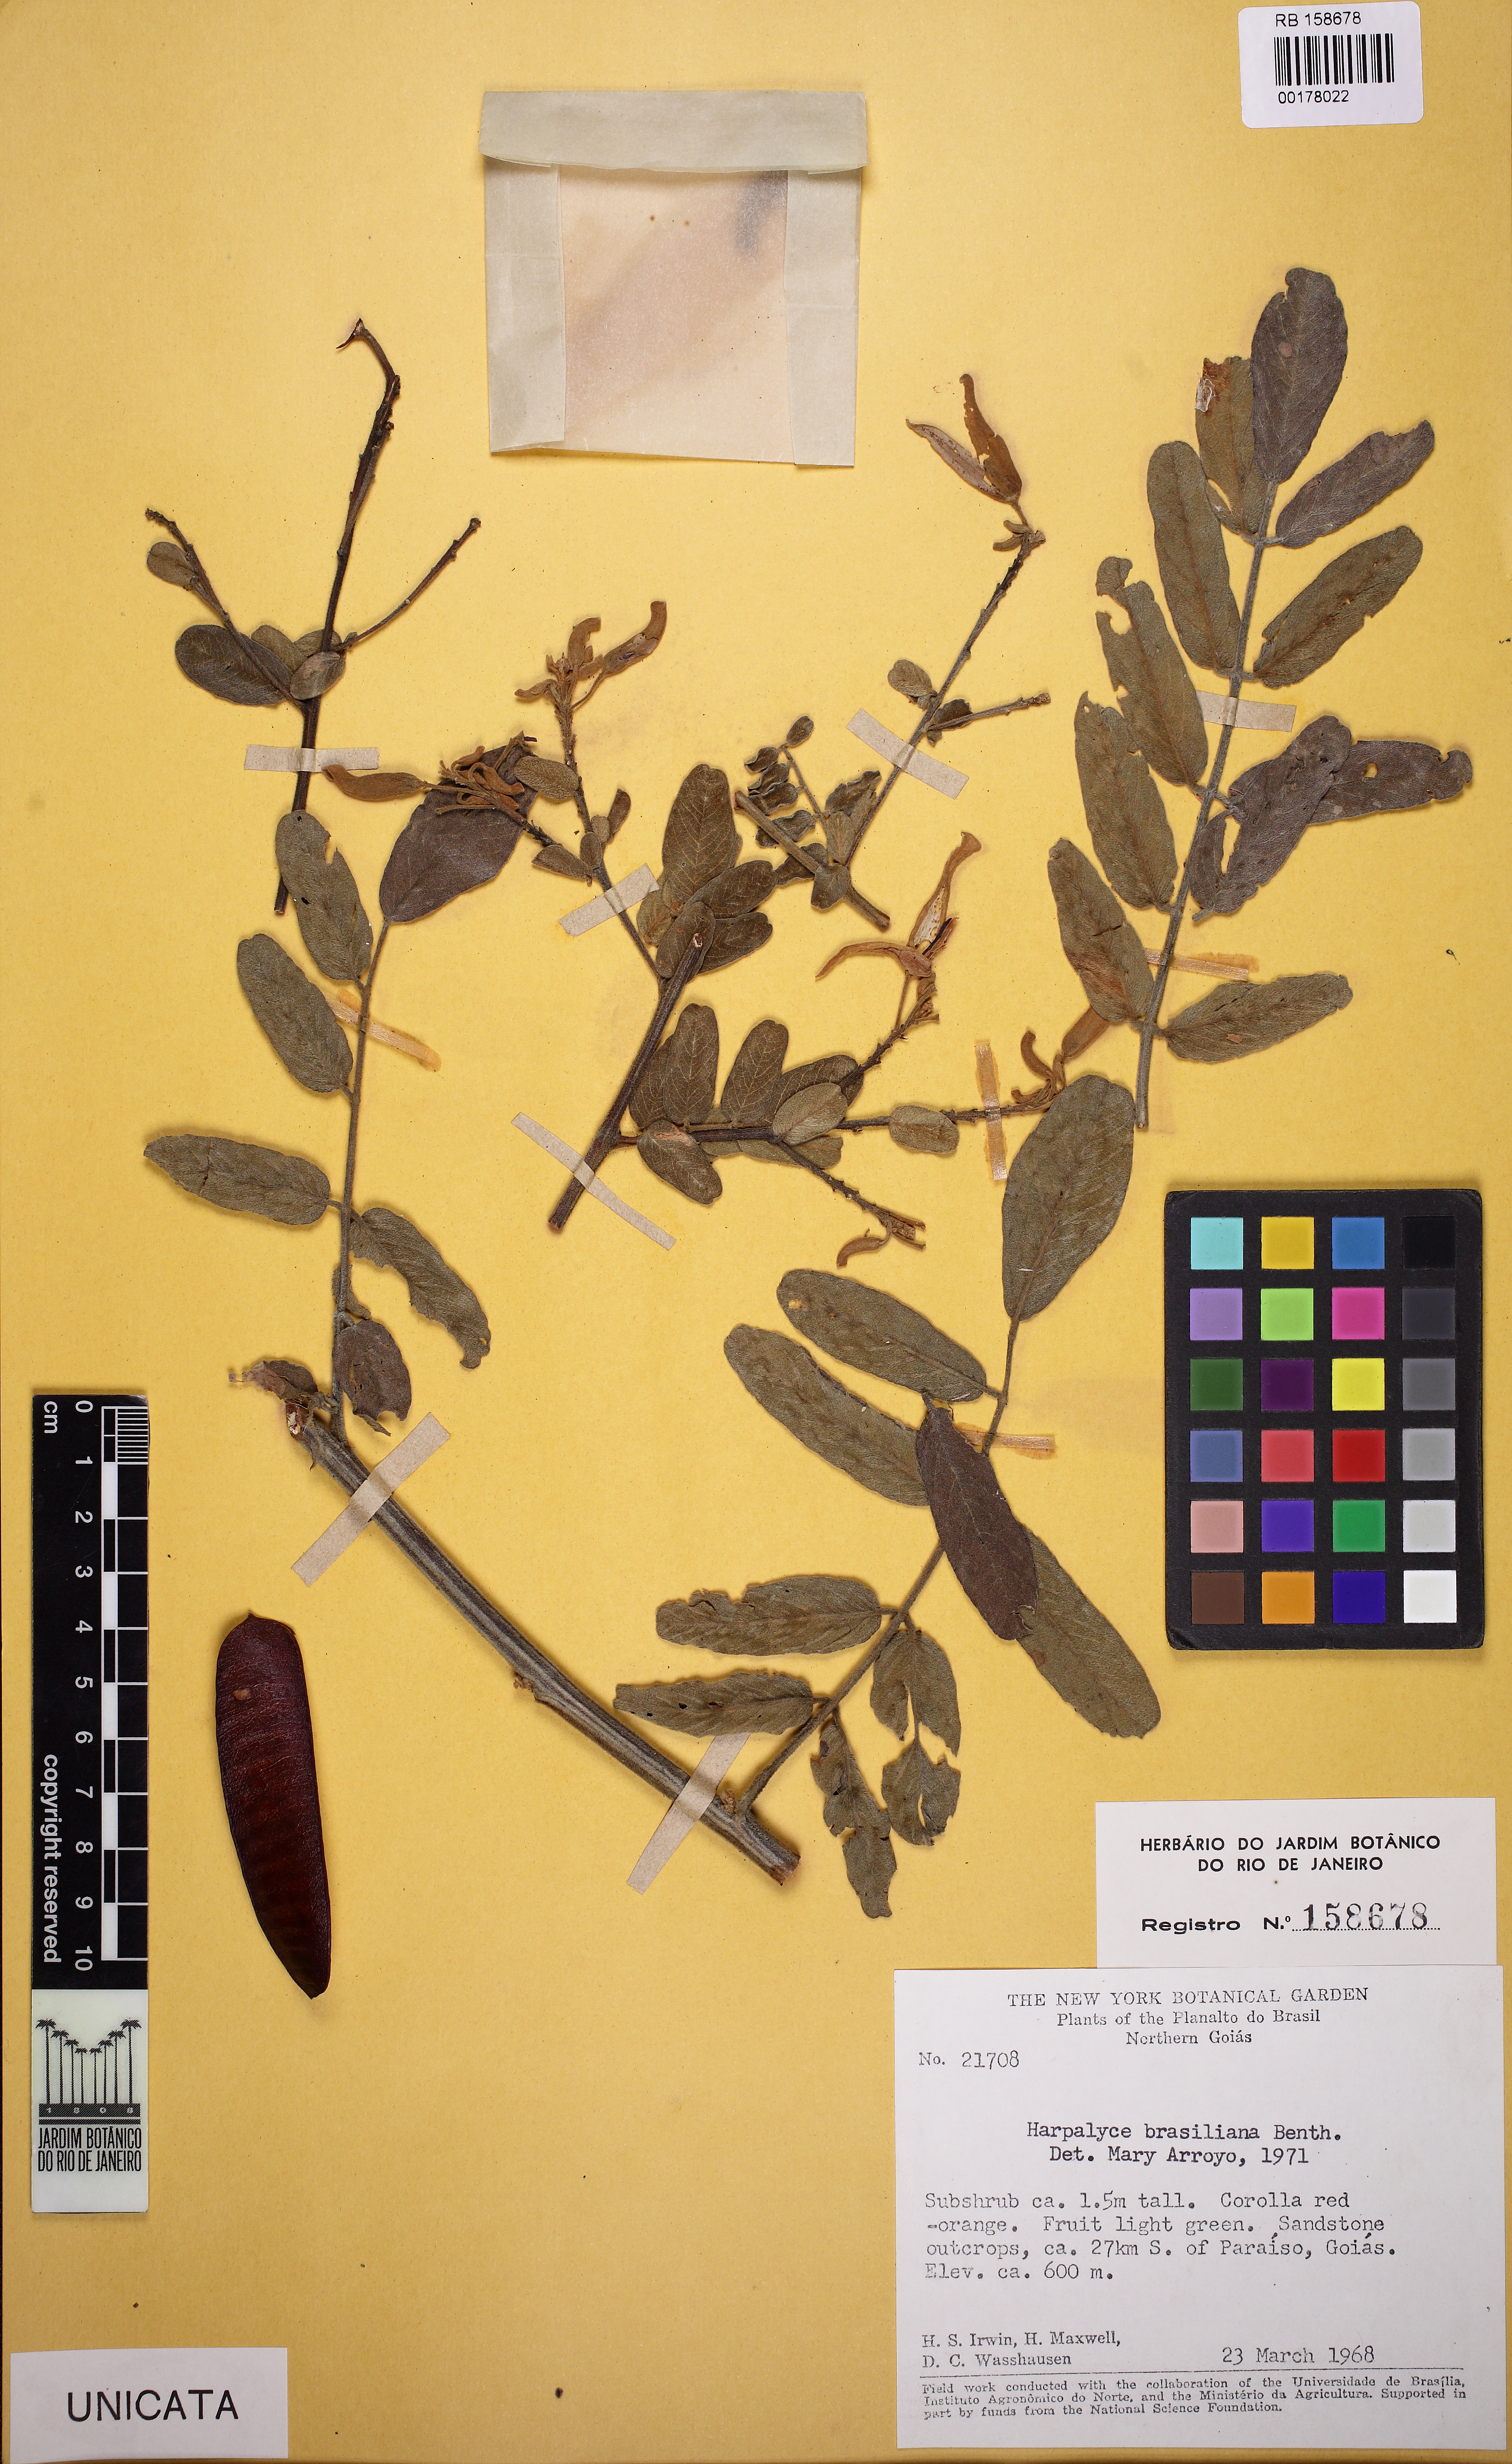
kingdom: Plantae
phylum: Tracheophyta
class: Magnoliopsida
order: Fabales
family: Fabaceae
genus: Harpalyce
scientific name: Harpalyce brasiliana
